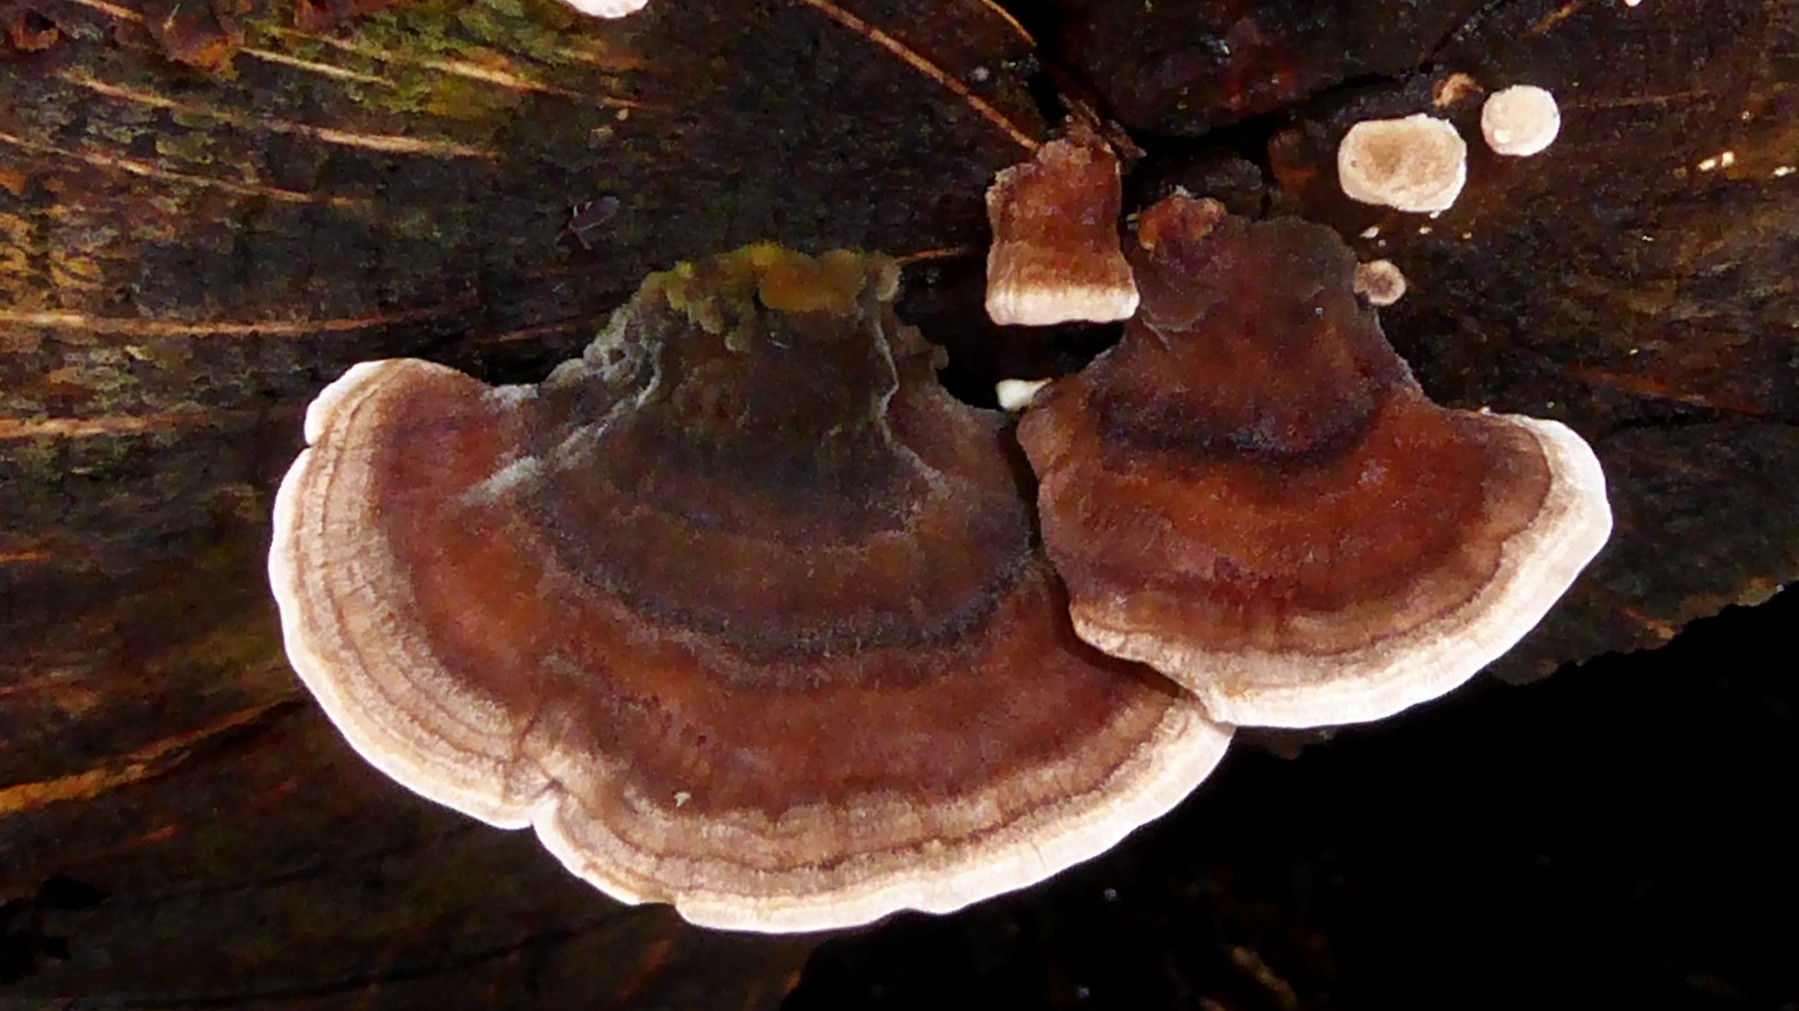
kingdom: Fungi
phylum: Basidiomycota
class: Agaricomycetes
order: Polyporales
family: Polyporaceae
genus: Trametes
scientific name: Trametes versicolor
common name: broget læderporesvamp
